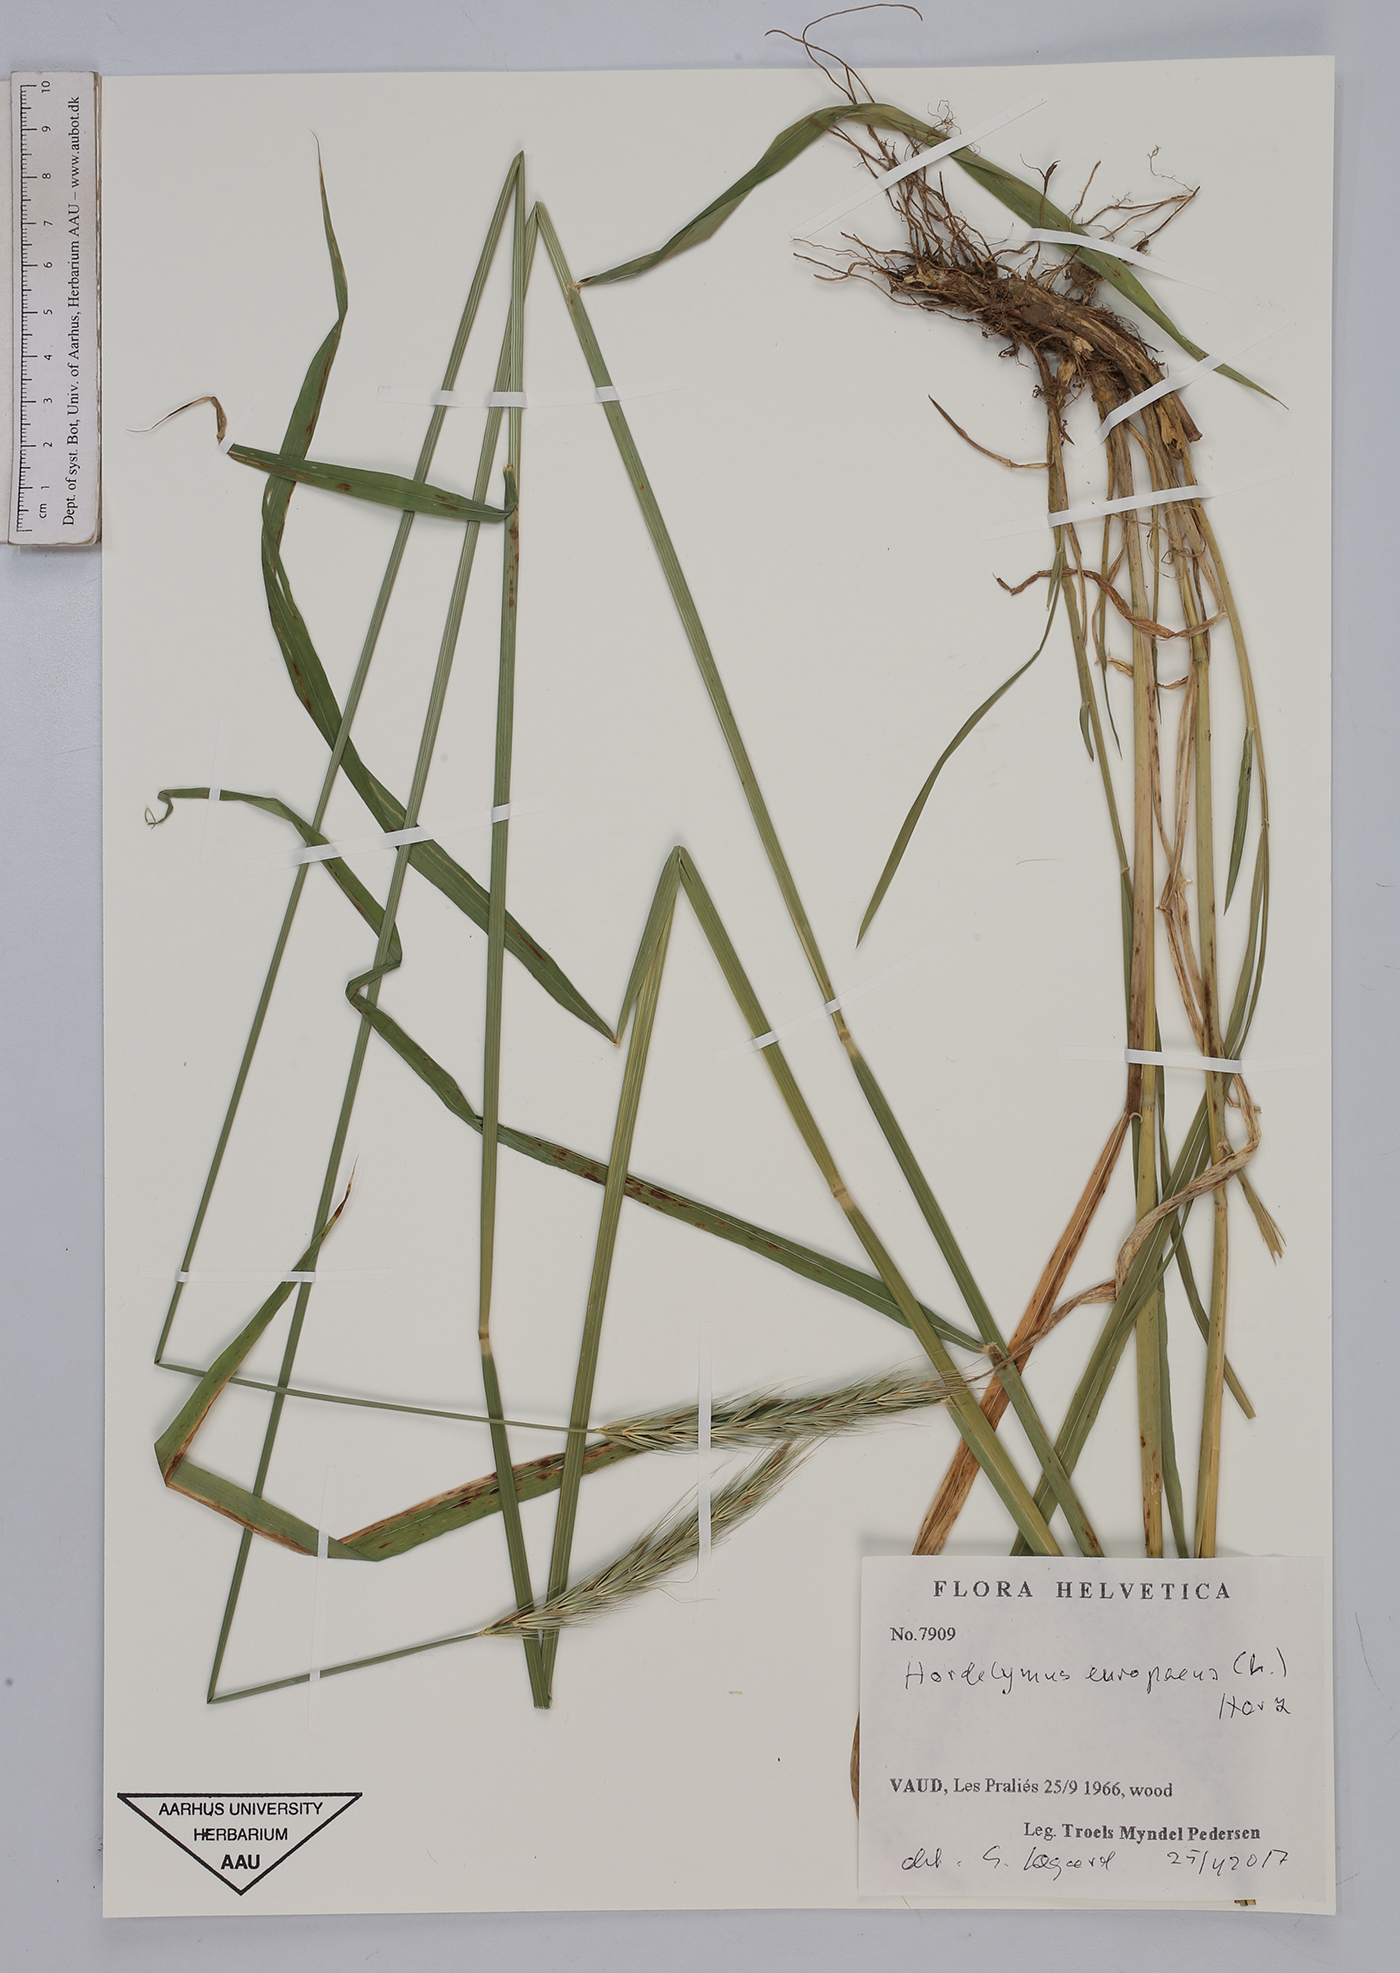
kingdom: Plantae
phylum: Tracheophyta
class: Liliopsida
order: Poales
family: Poaceae
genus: Hordelymus
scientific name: Hordelymus europaeus
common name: Wood-barley
